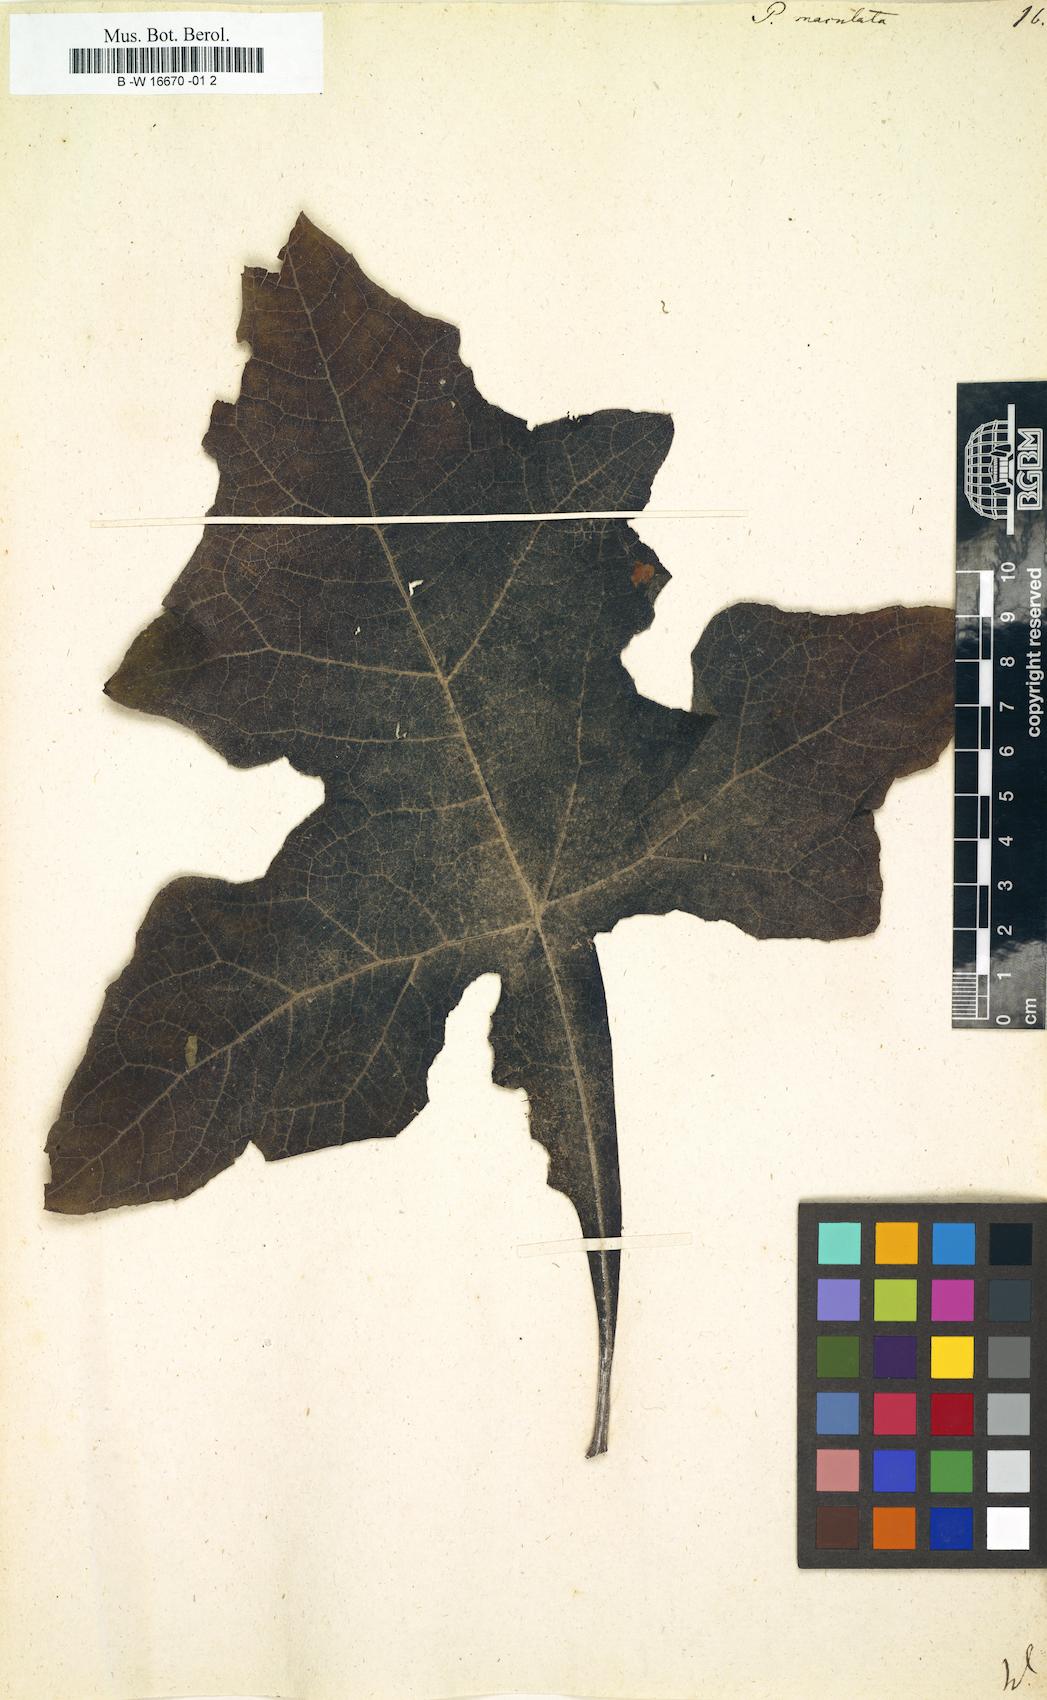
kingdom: Plantae
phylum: Tracheophyta
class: Magnoliopsida
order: Asterales
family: Asteraceae
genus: Smallanthus
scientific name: Smallanthus maculatus
